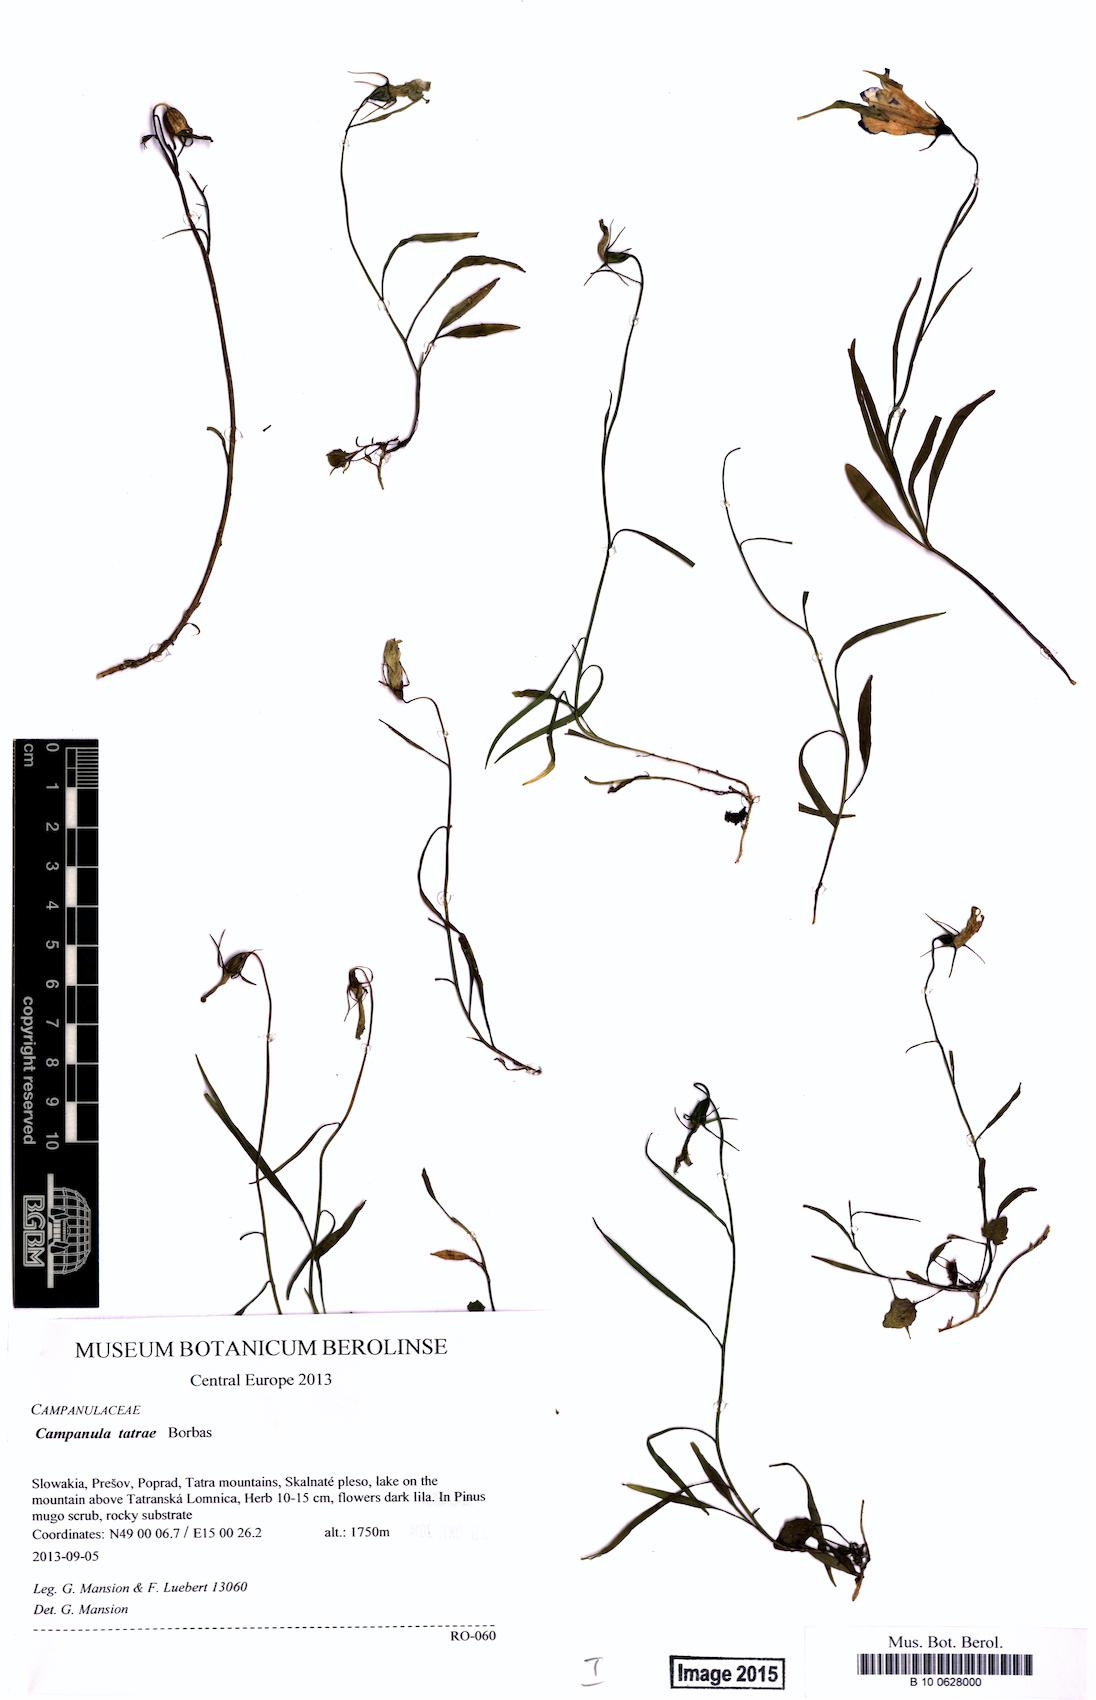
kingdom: Plantae
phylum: Tracheophyta
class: Magnoliopsida
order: Asterales
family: Campanulaceae
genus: Campanula
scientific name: Campanula tatrae
